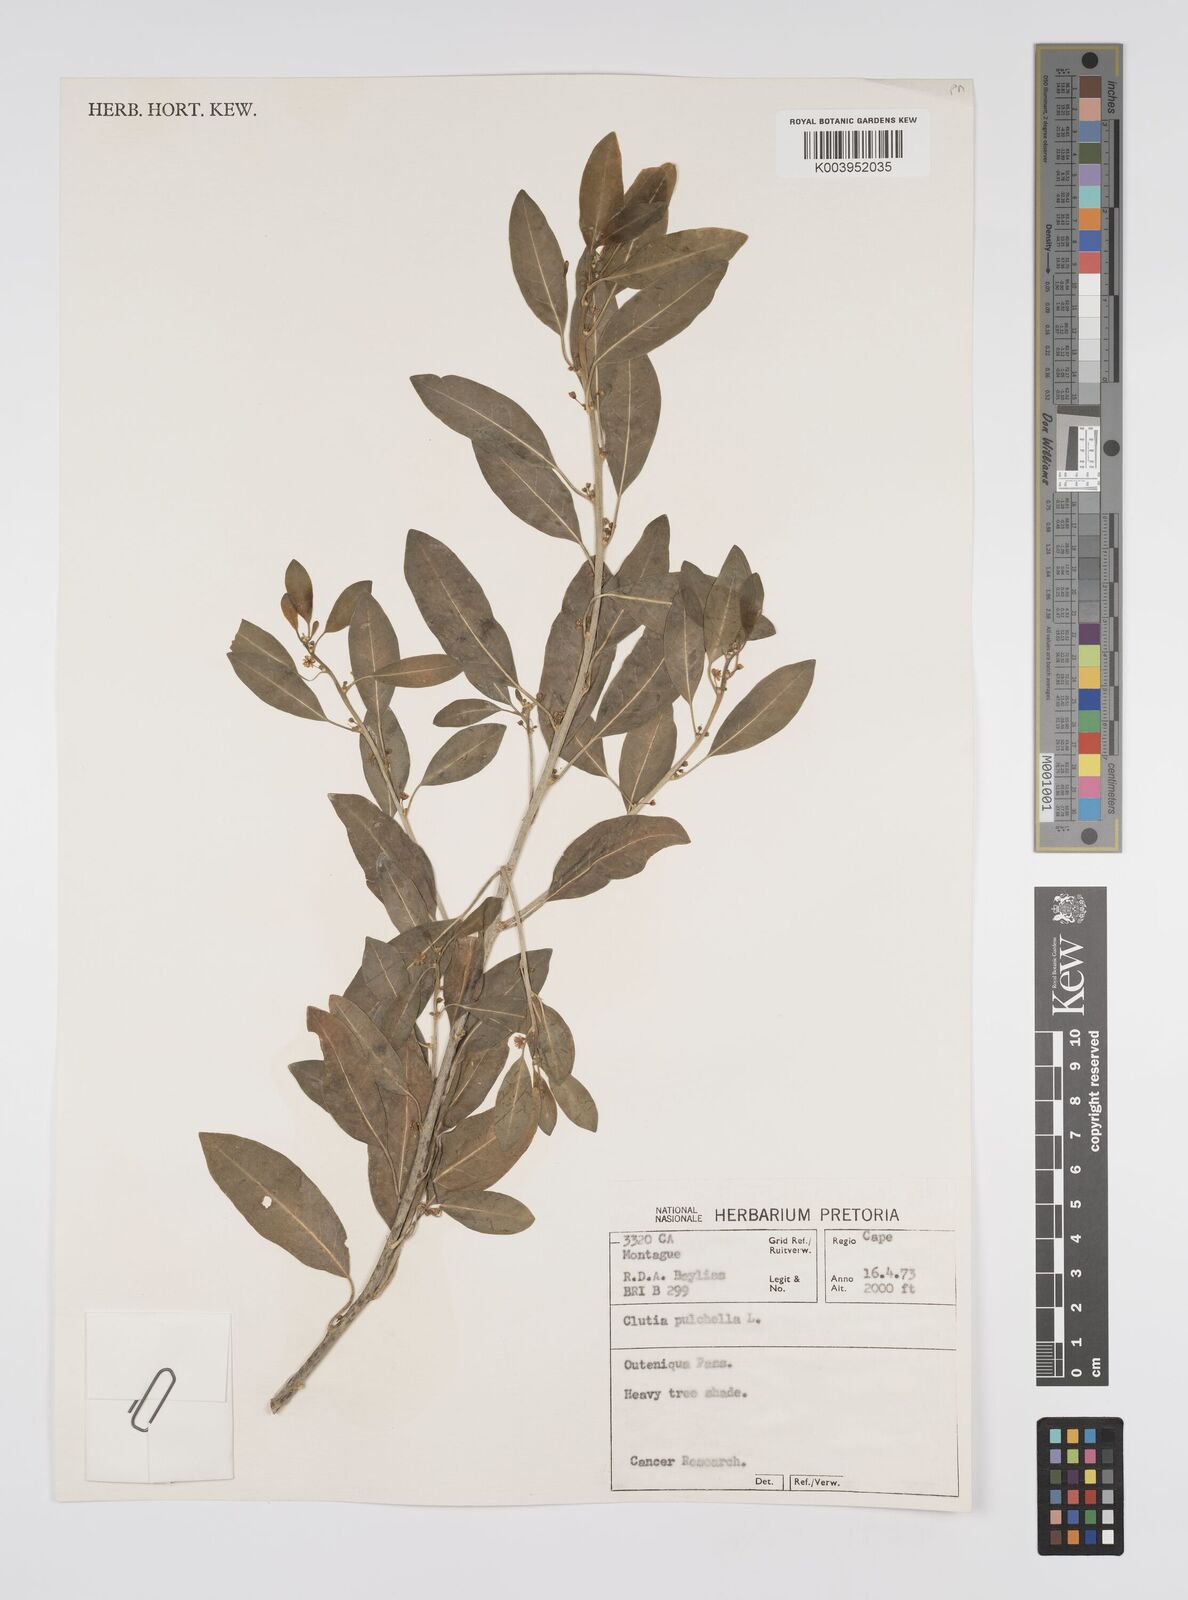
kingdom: Plantae
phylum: Tracheophyta
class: Magnoliopsida
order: Malpighiales
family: Peraceae
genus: Clutia
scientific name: Clutia pulchella
